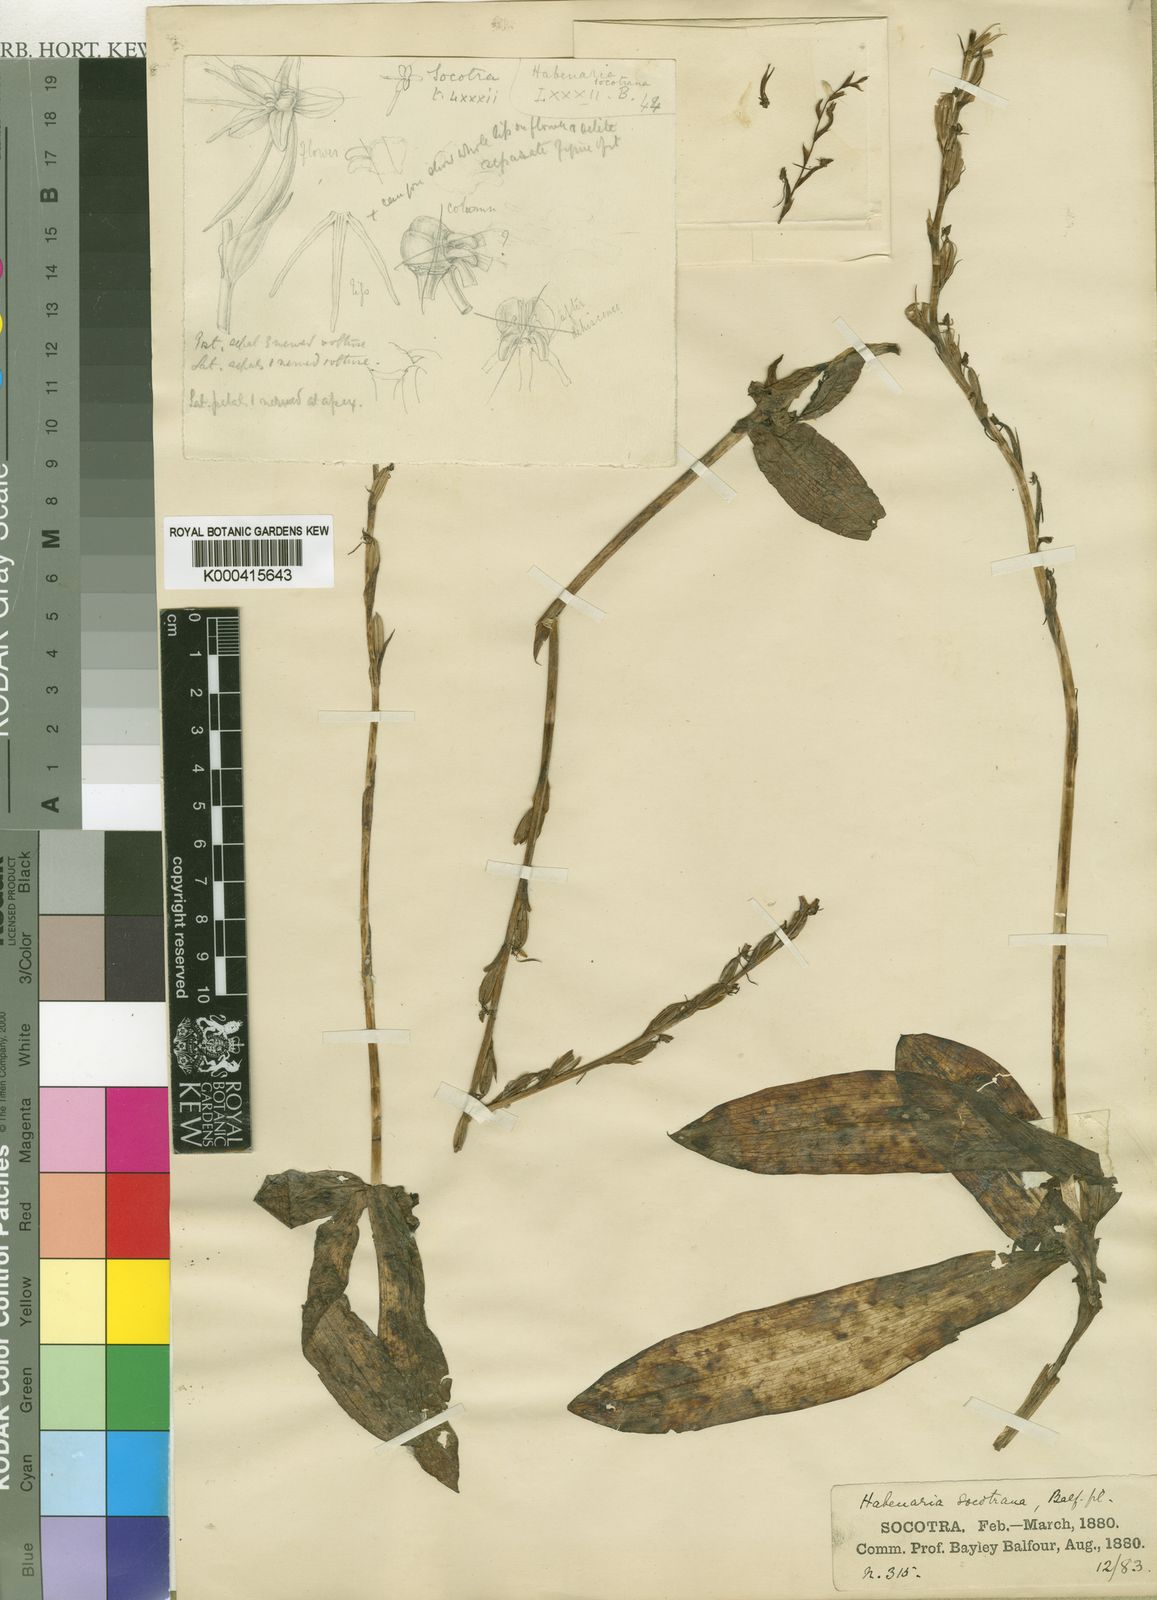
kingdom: Plantae
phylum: Tracheophyta
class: Liliopsida
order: Asparagales
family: Orchidaceae
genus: Habenaria
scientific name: Habenaria socotrana
